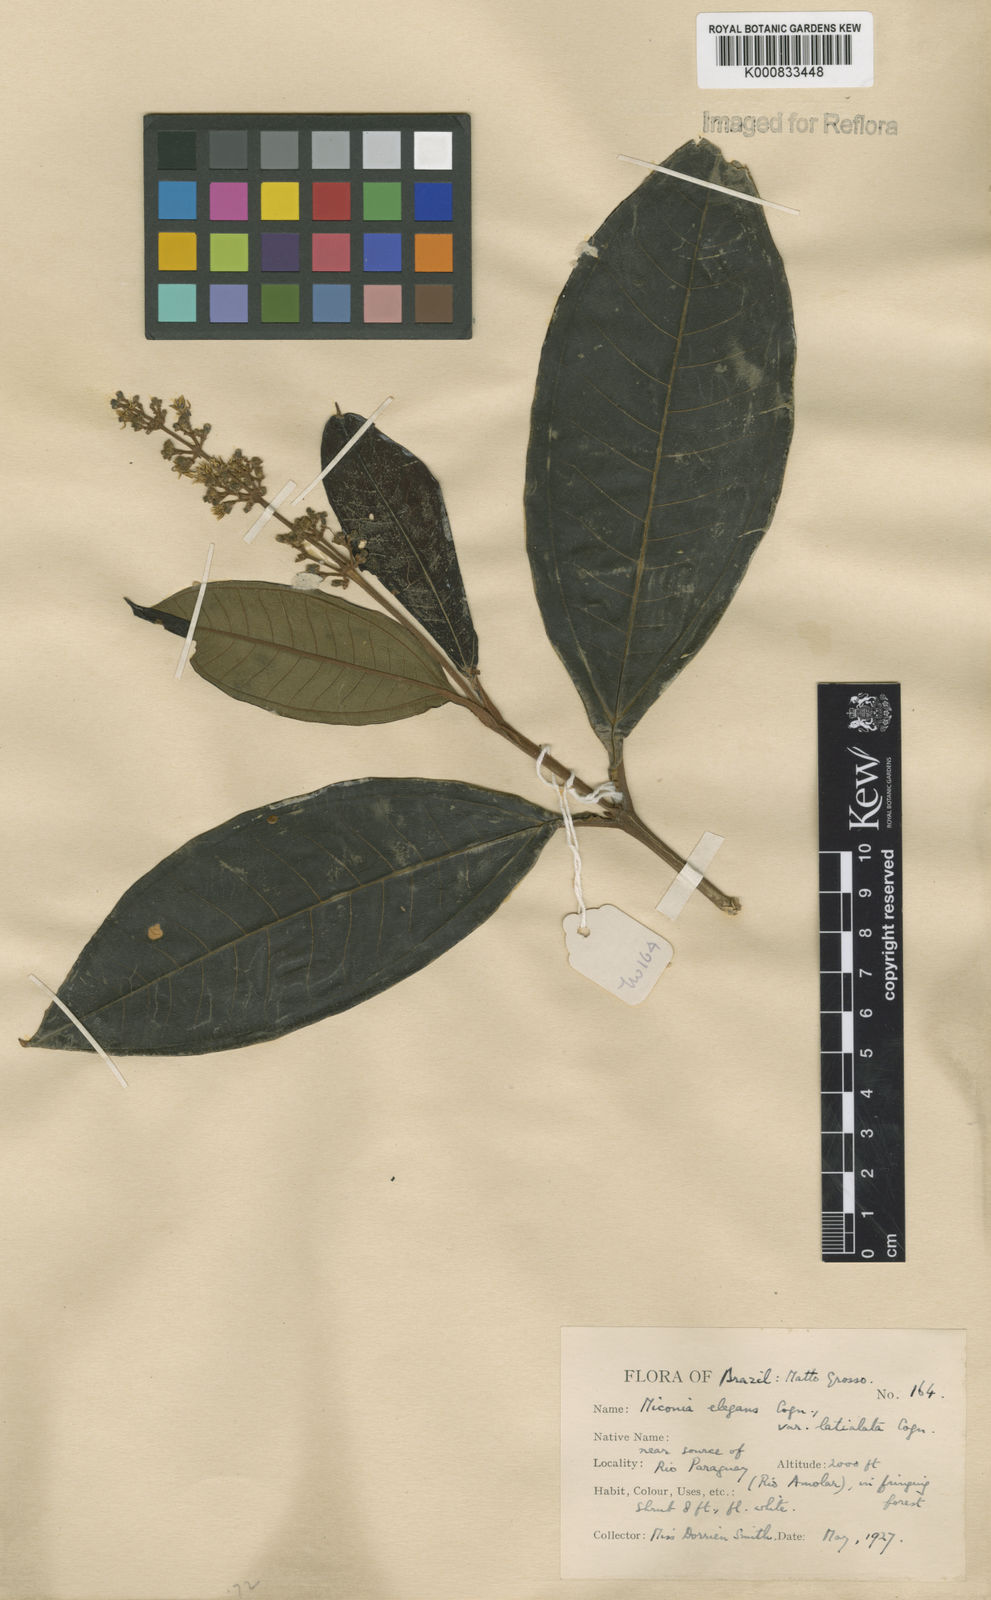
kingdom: Plantae
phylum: Tracheophyta
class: Magnoliopsida
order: Myrtales
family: Melastomataceae
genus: Miconia
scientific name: Miconia elegans
